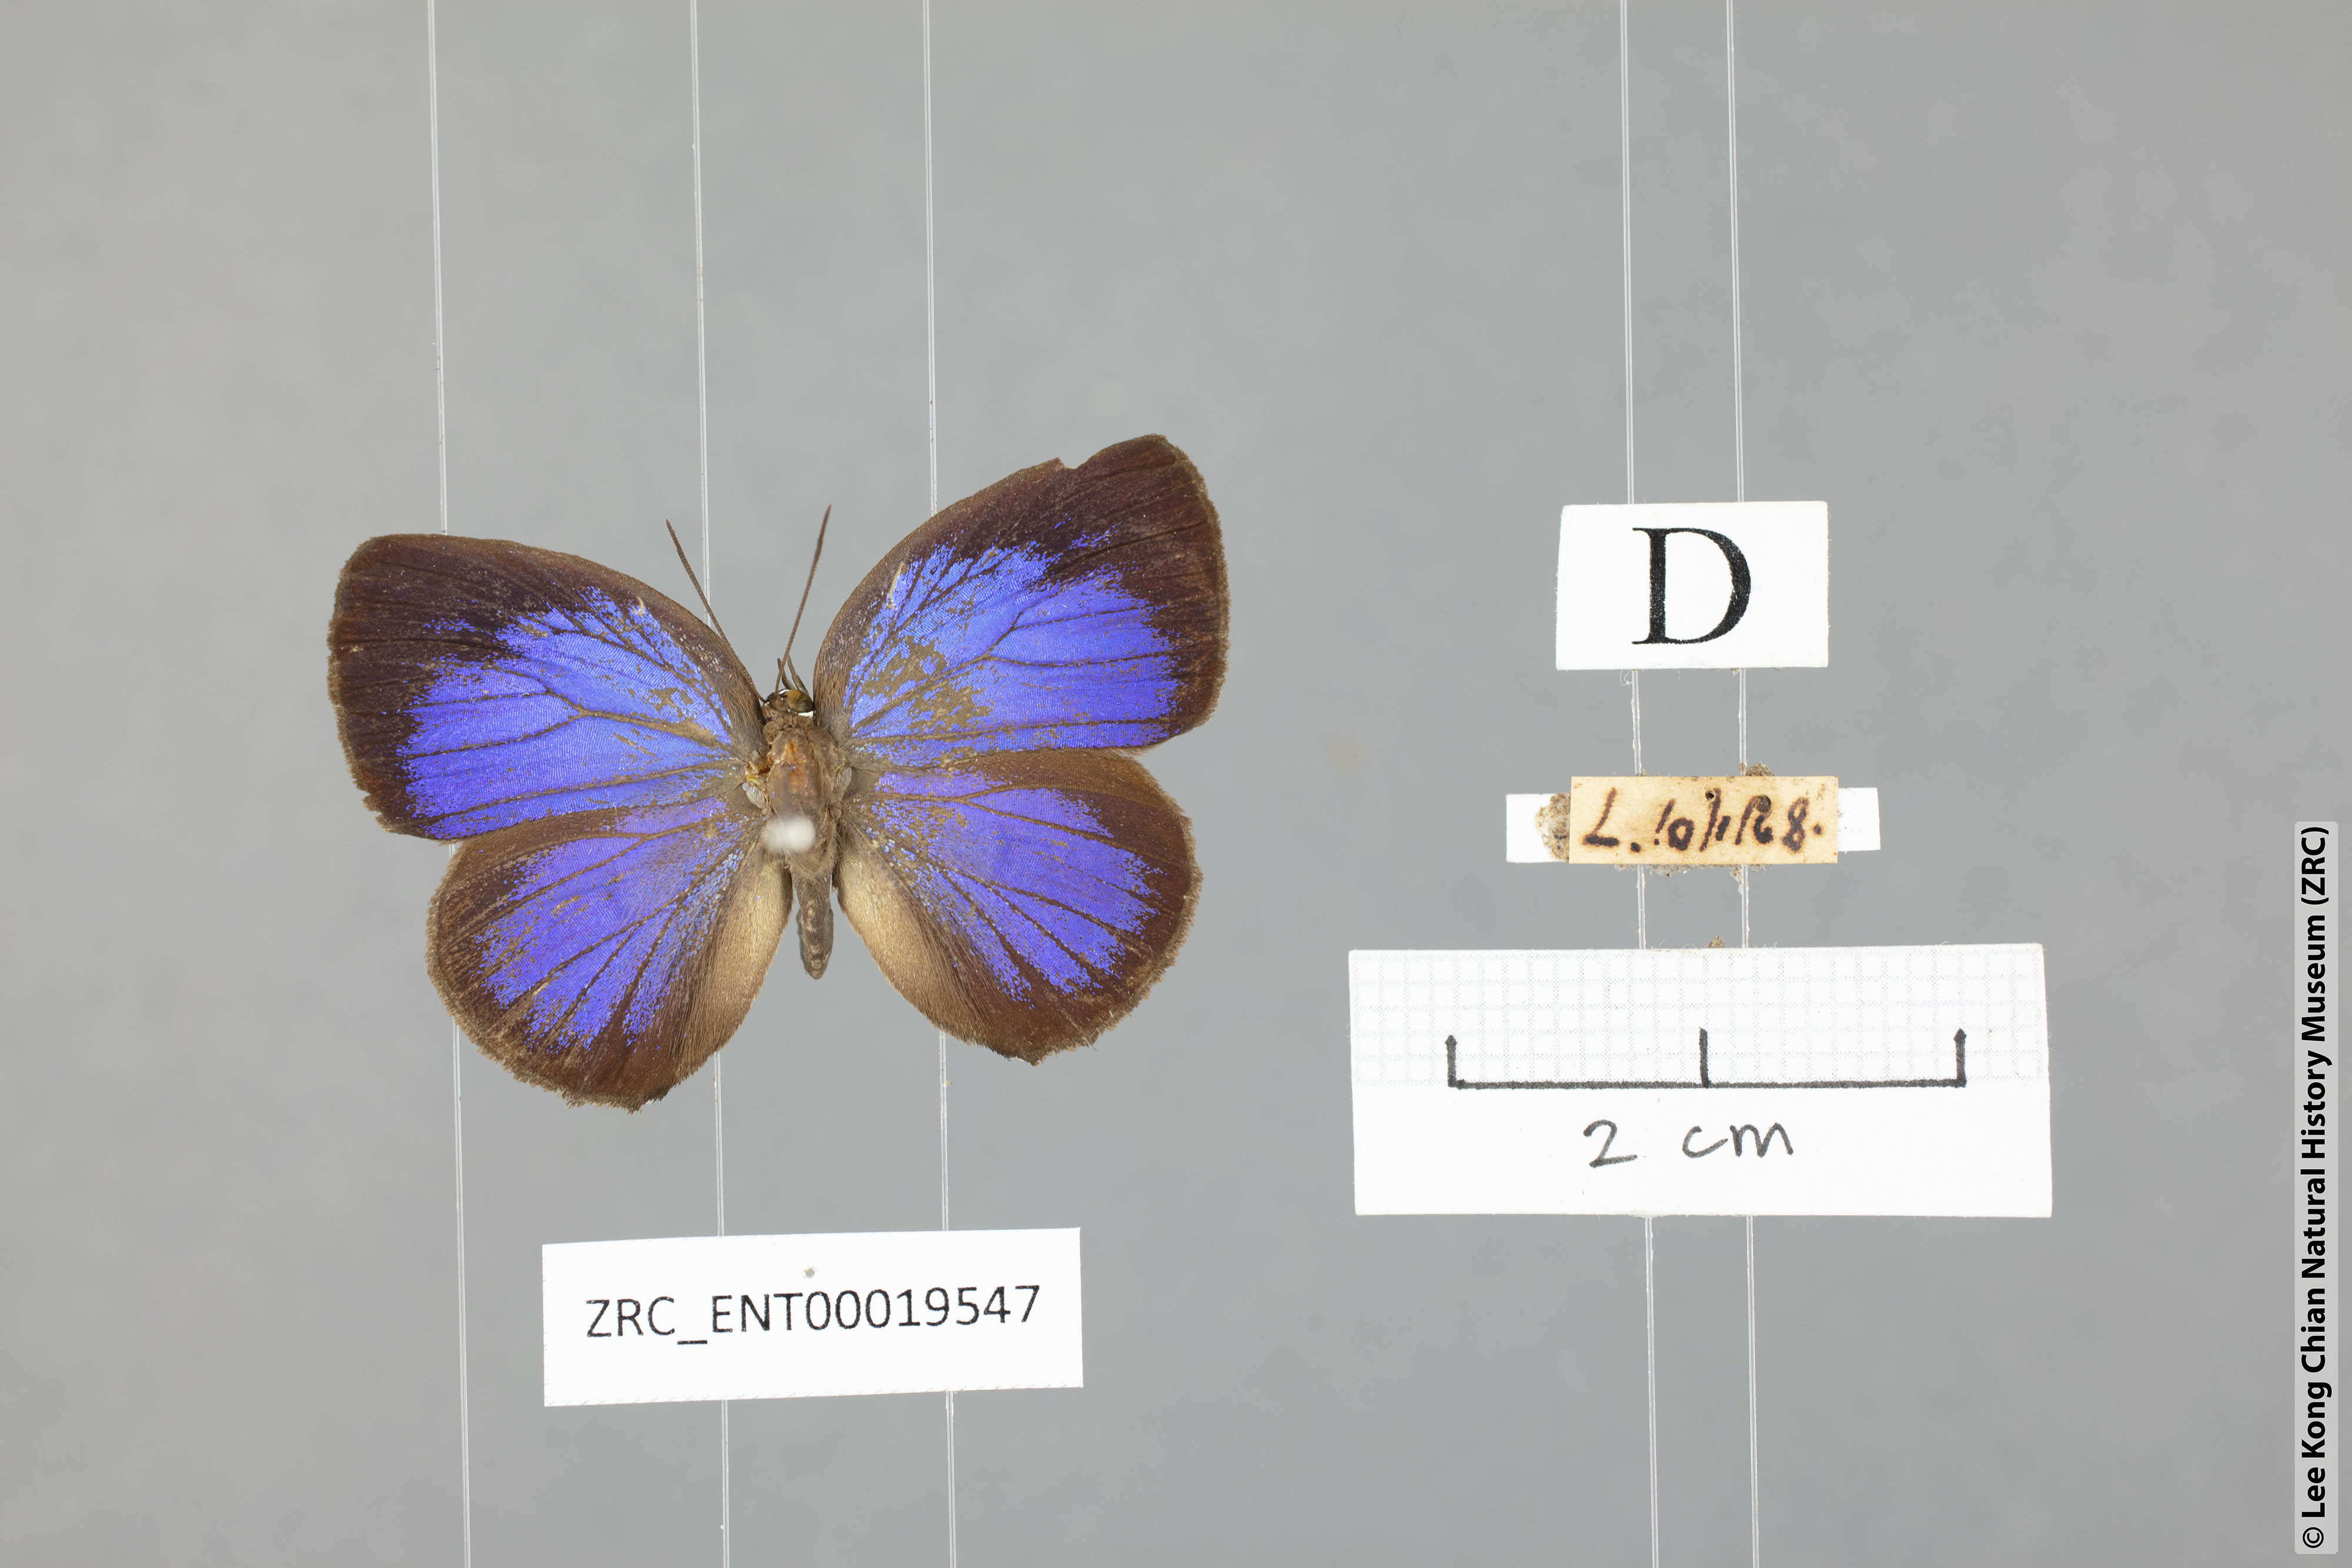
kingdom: Animalia
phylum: Arthropoda
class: Insecta
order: Lepidoptera
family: Lycaenidae
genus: Arhopala
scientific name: Arhopala hypomuta
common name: Violet oakblue
